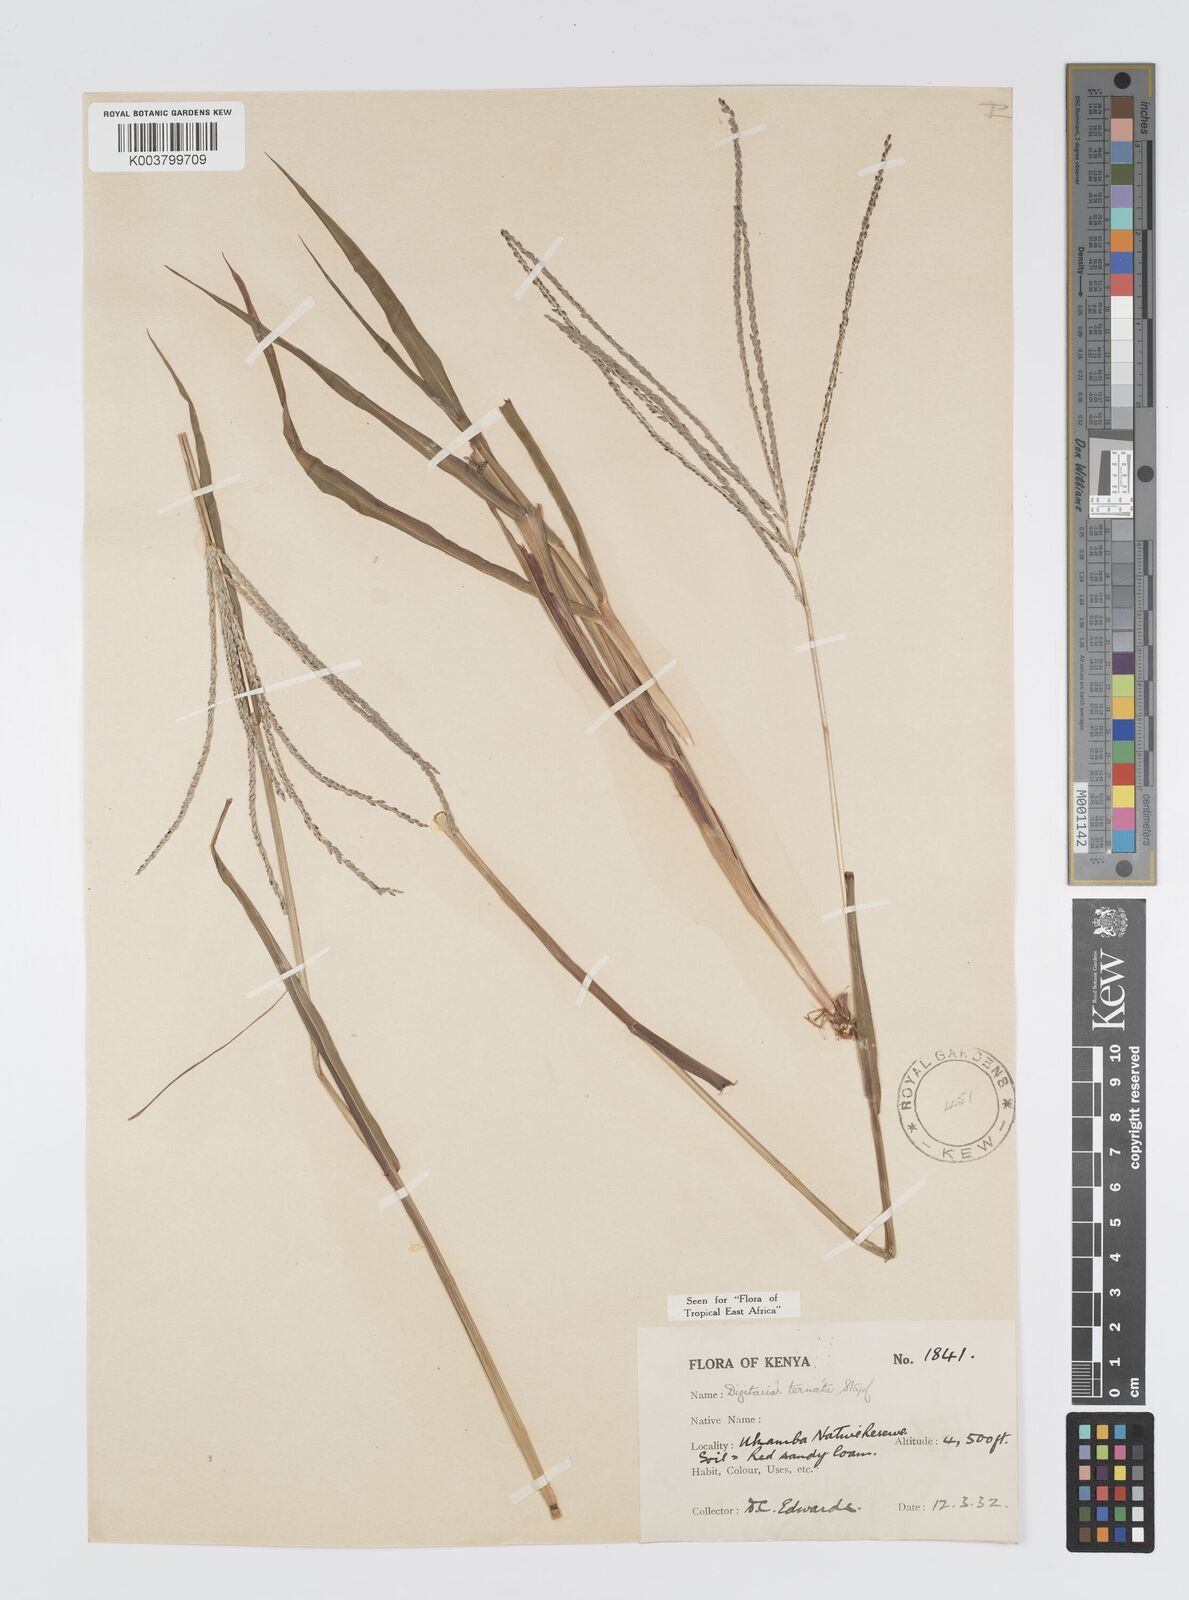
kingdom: Plantae
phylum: Tracheophyta
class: Liliopsida
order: Poales
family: Poaceae
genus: Digitaria
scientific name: Digitaria ternata
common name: Blackseed crabgrass
